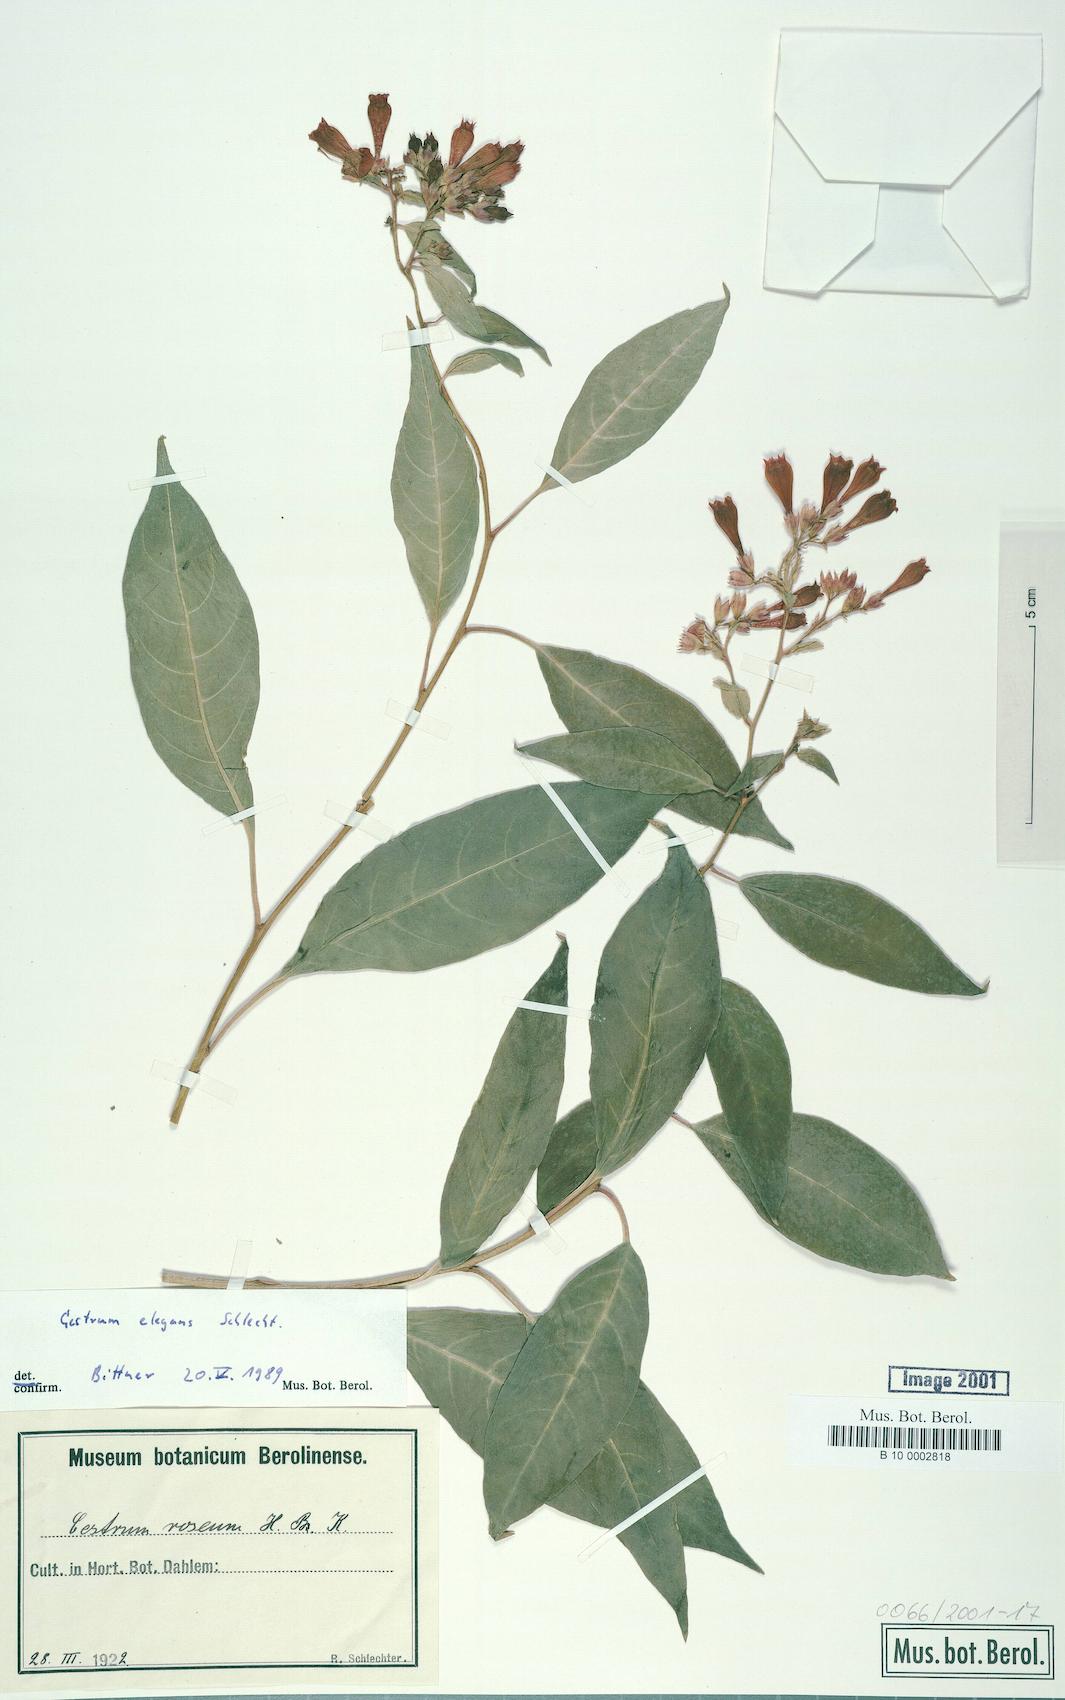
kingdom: Plantae
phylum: Tracheophyta
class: Magnoliopsida
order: Solanales
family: Solanaceae
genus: Cestrum
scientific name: Cestrum elegans
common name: Crimson cestrum
